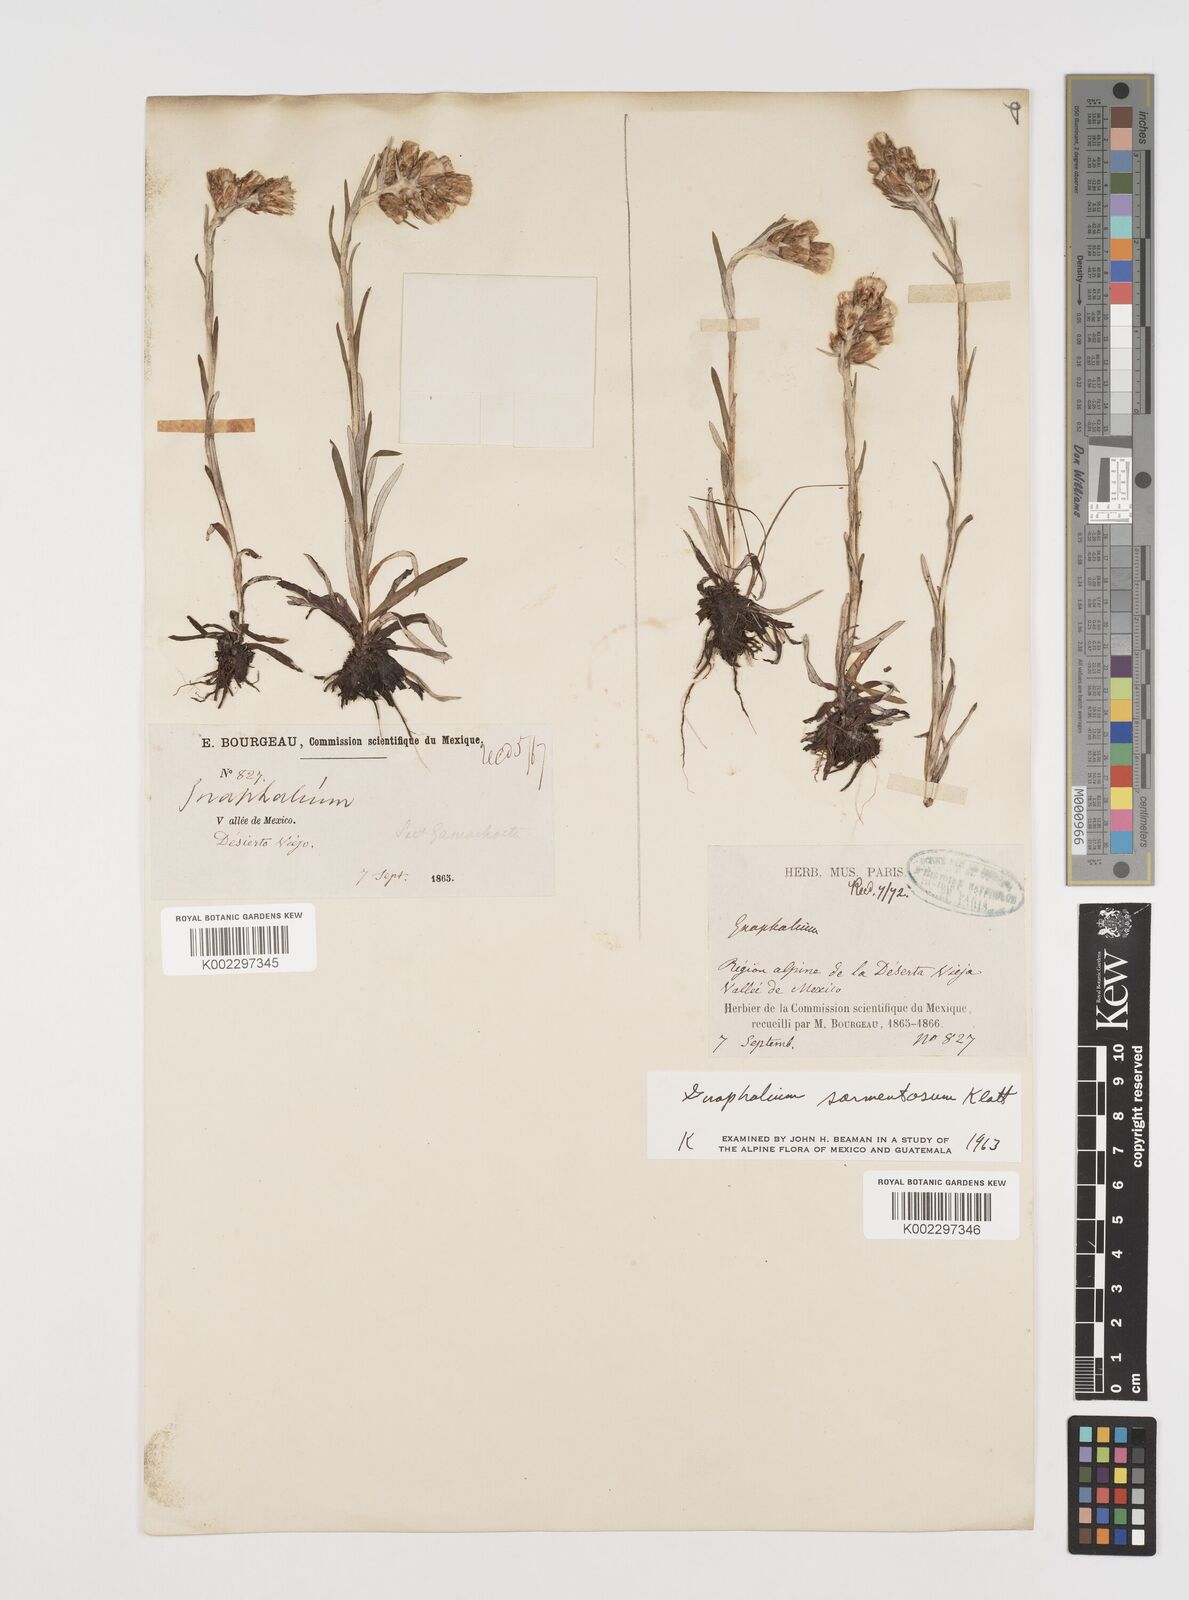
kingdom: Plantae
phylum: Tracheophyta
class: Magnoliopsida
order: Asterales
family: Asteraceae
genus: Mexerion
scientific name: Mexerion sarmentosum
